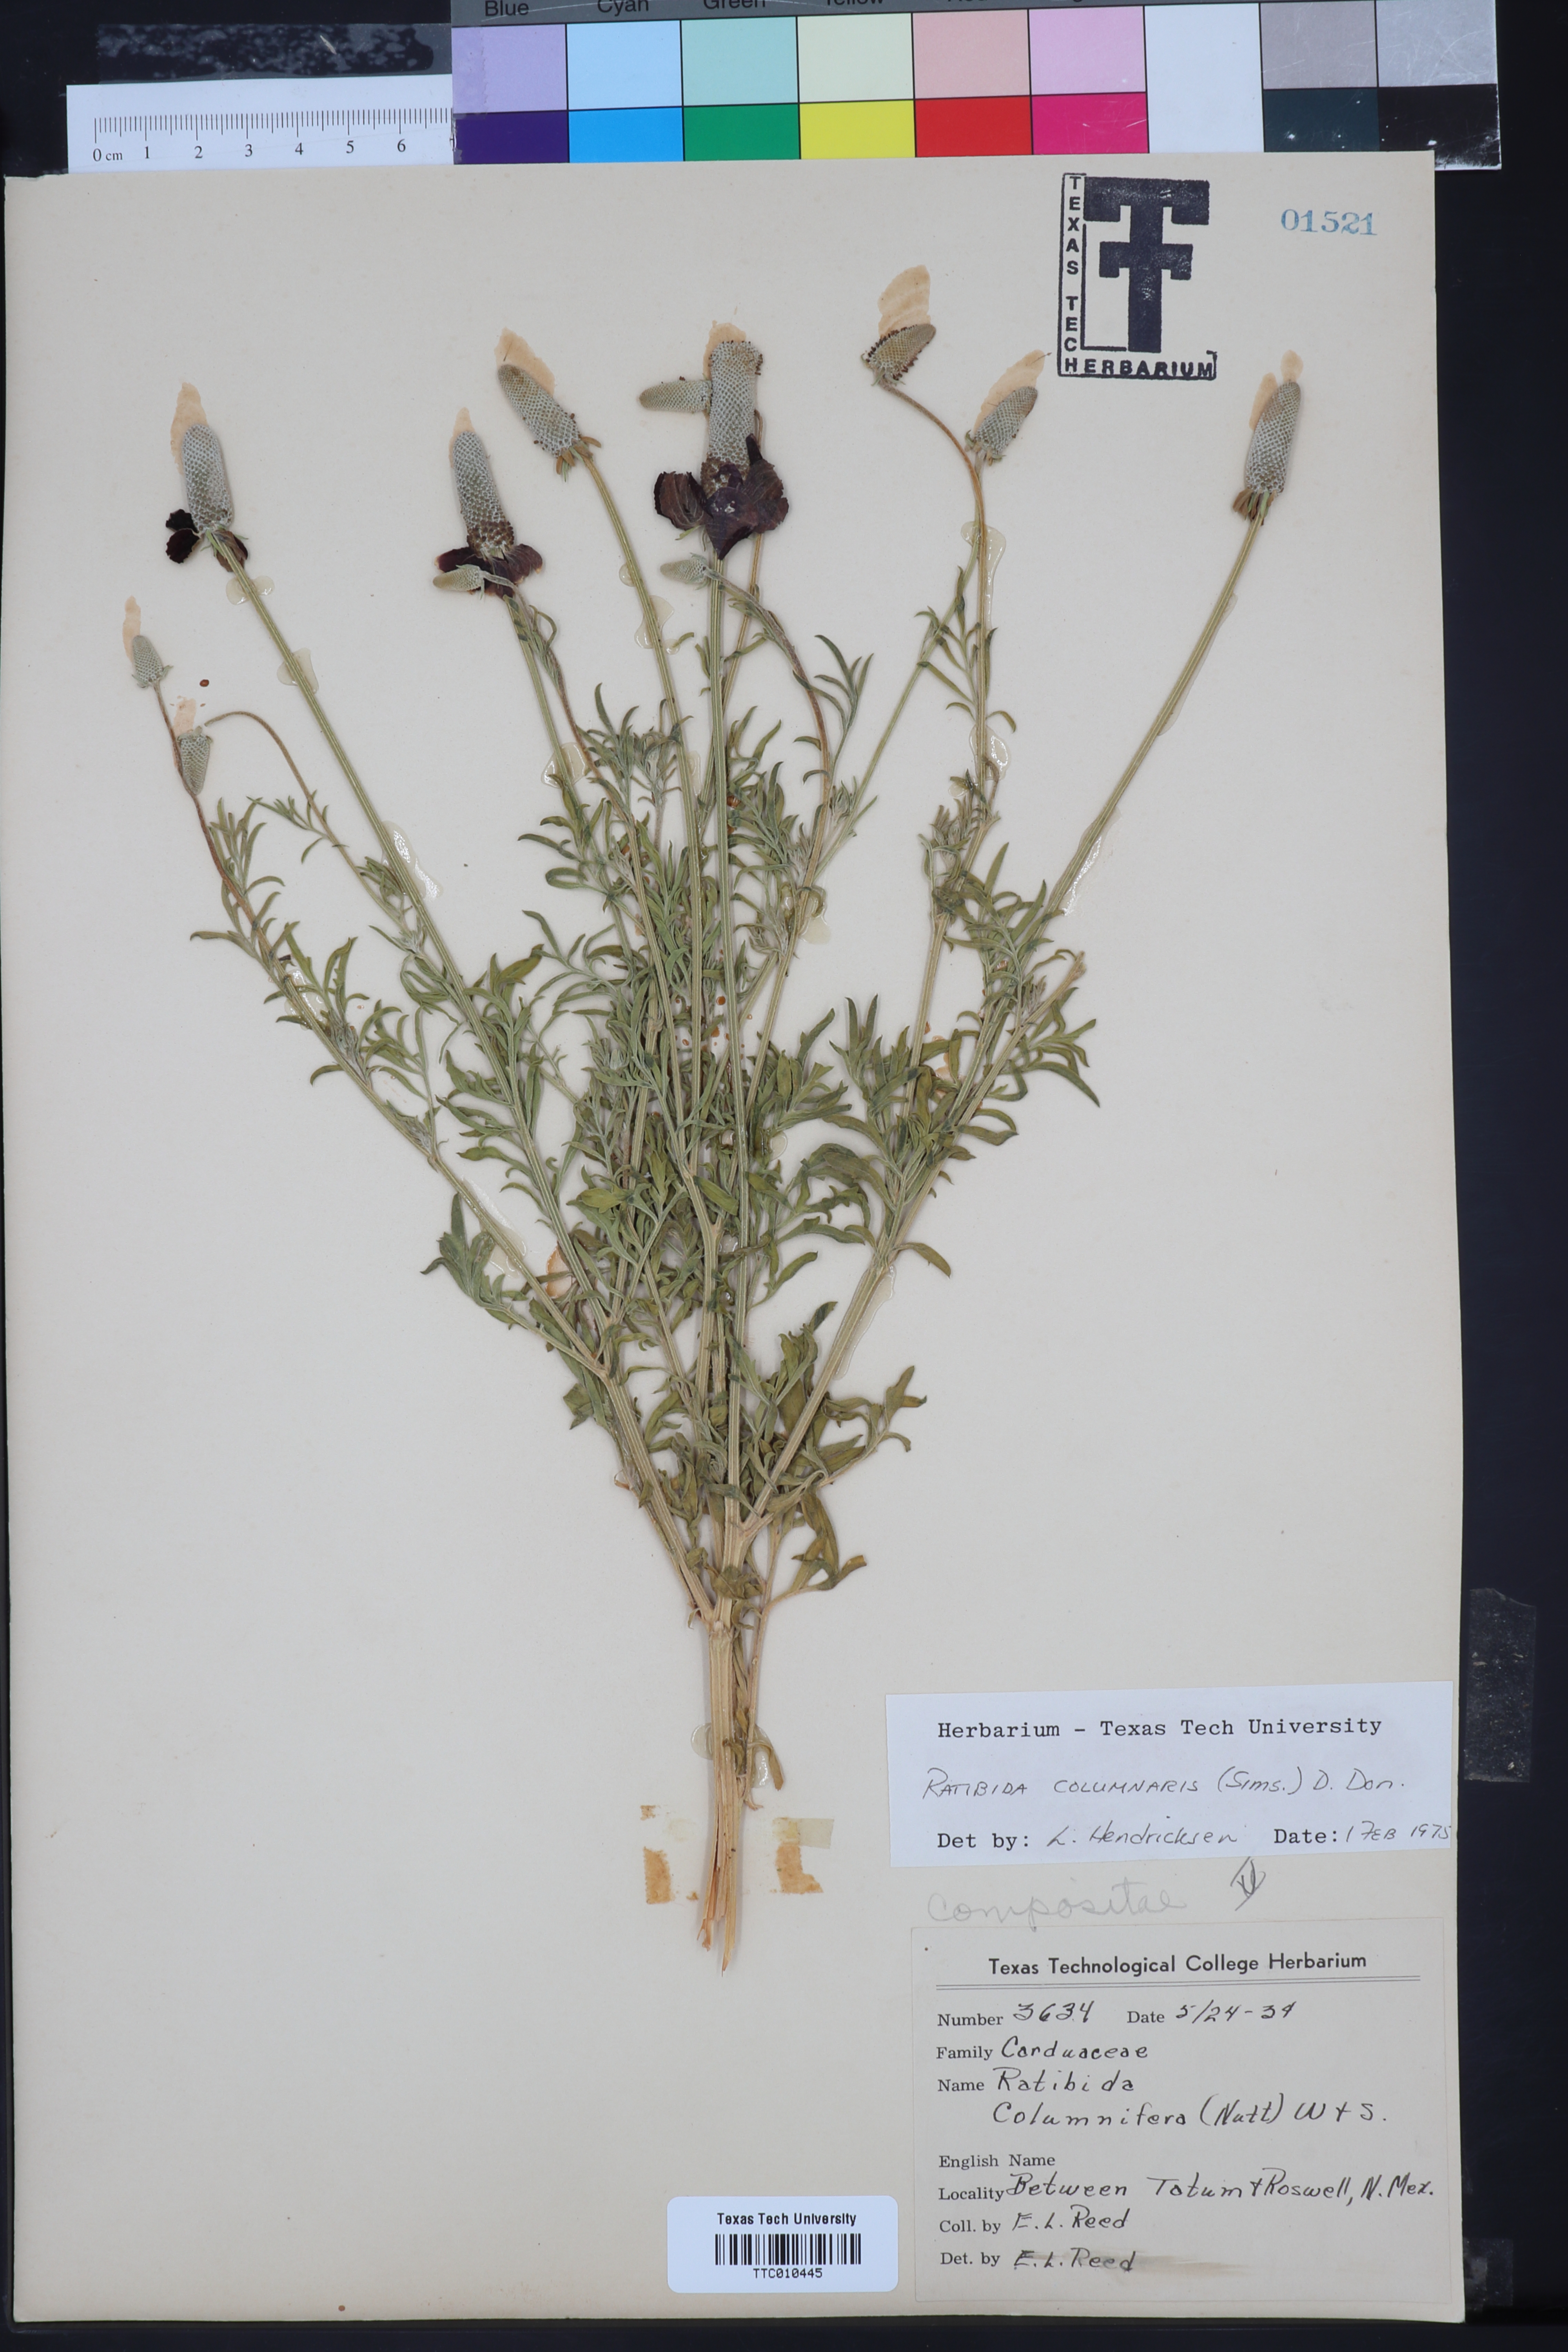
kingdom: Plantae
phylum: Tracheophyta
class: Magnoliopsida
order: Asterales
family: Asteraceae
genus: Ratibida
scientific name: Ratibida columnifera
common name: Prairie coneflower
